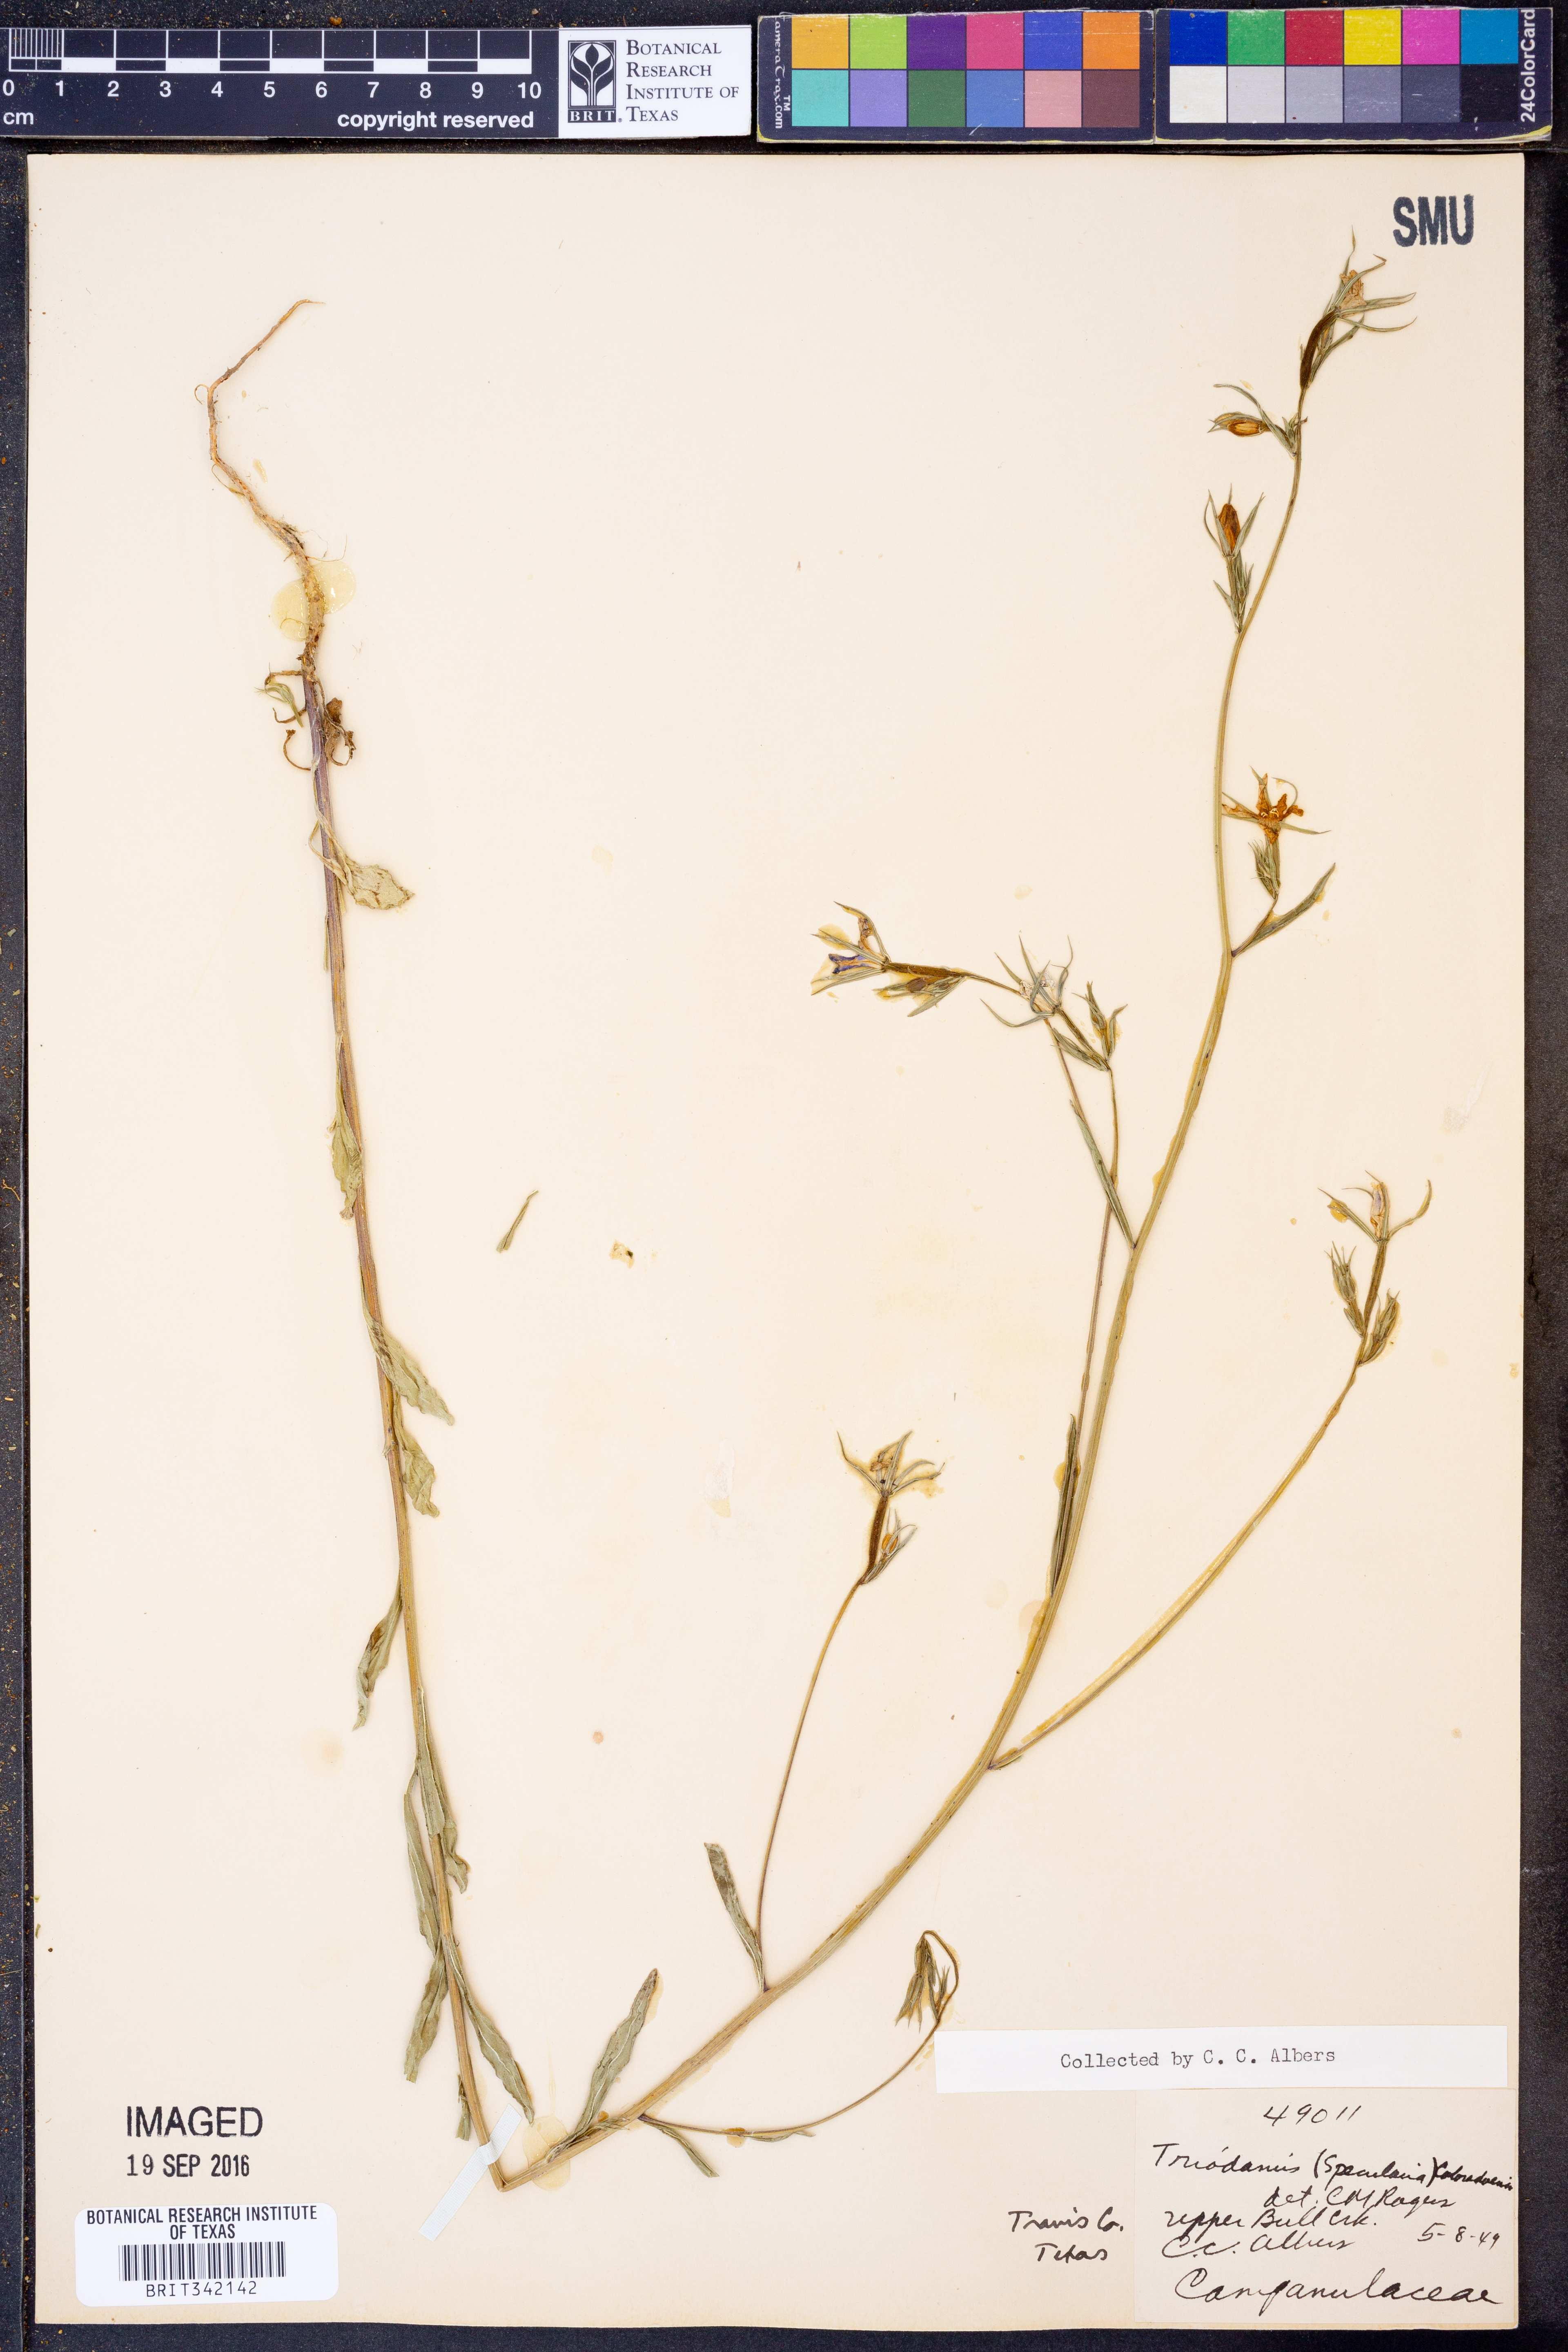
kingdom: Plantae
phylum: Tracheophyta
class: Magnoliopsida
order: Asterales
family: Campanulaceae
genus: Triodanis
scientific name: Triodanis coloradoensis
